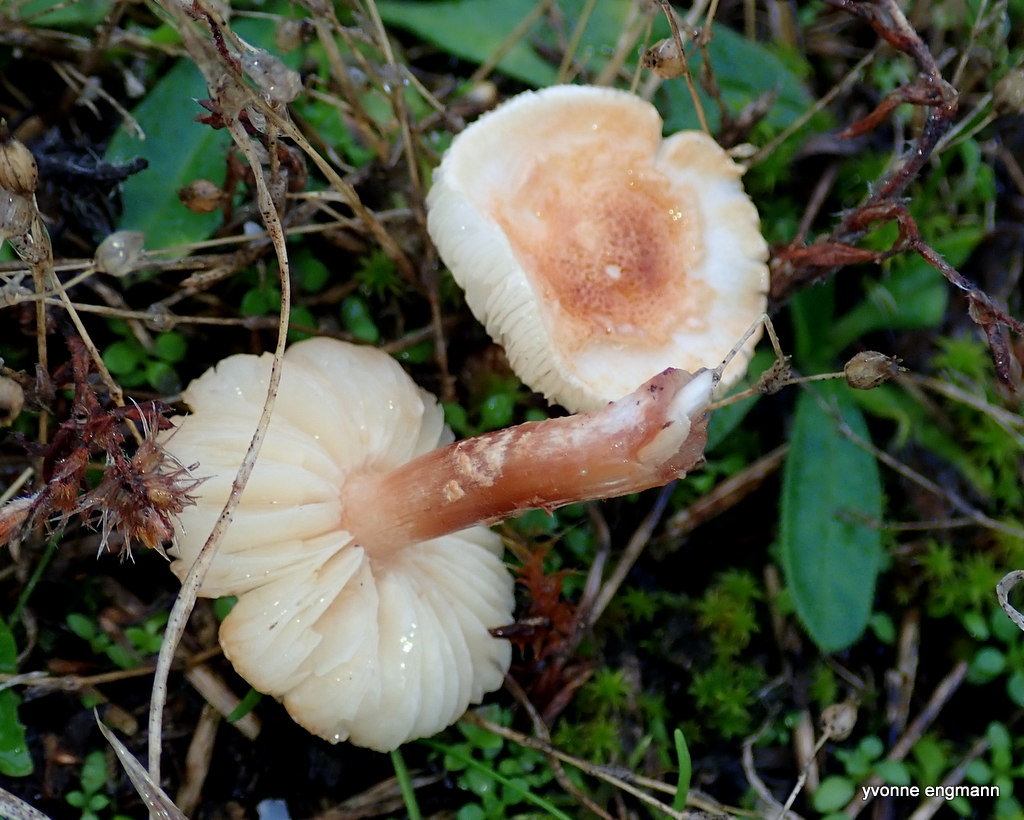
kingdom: Fungi
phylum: Basidiomycota
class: Agaricomycetes
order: Agaricales
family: Agaricaceae
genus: Lepiota
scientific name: Lepiota
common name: parasolhat
